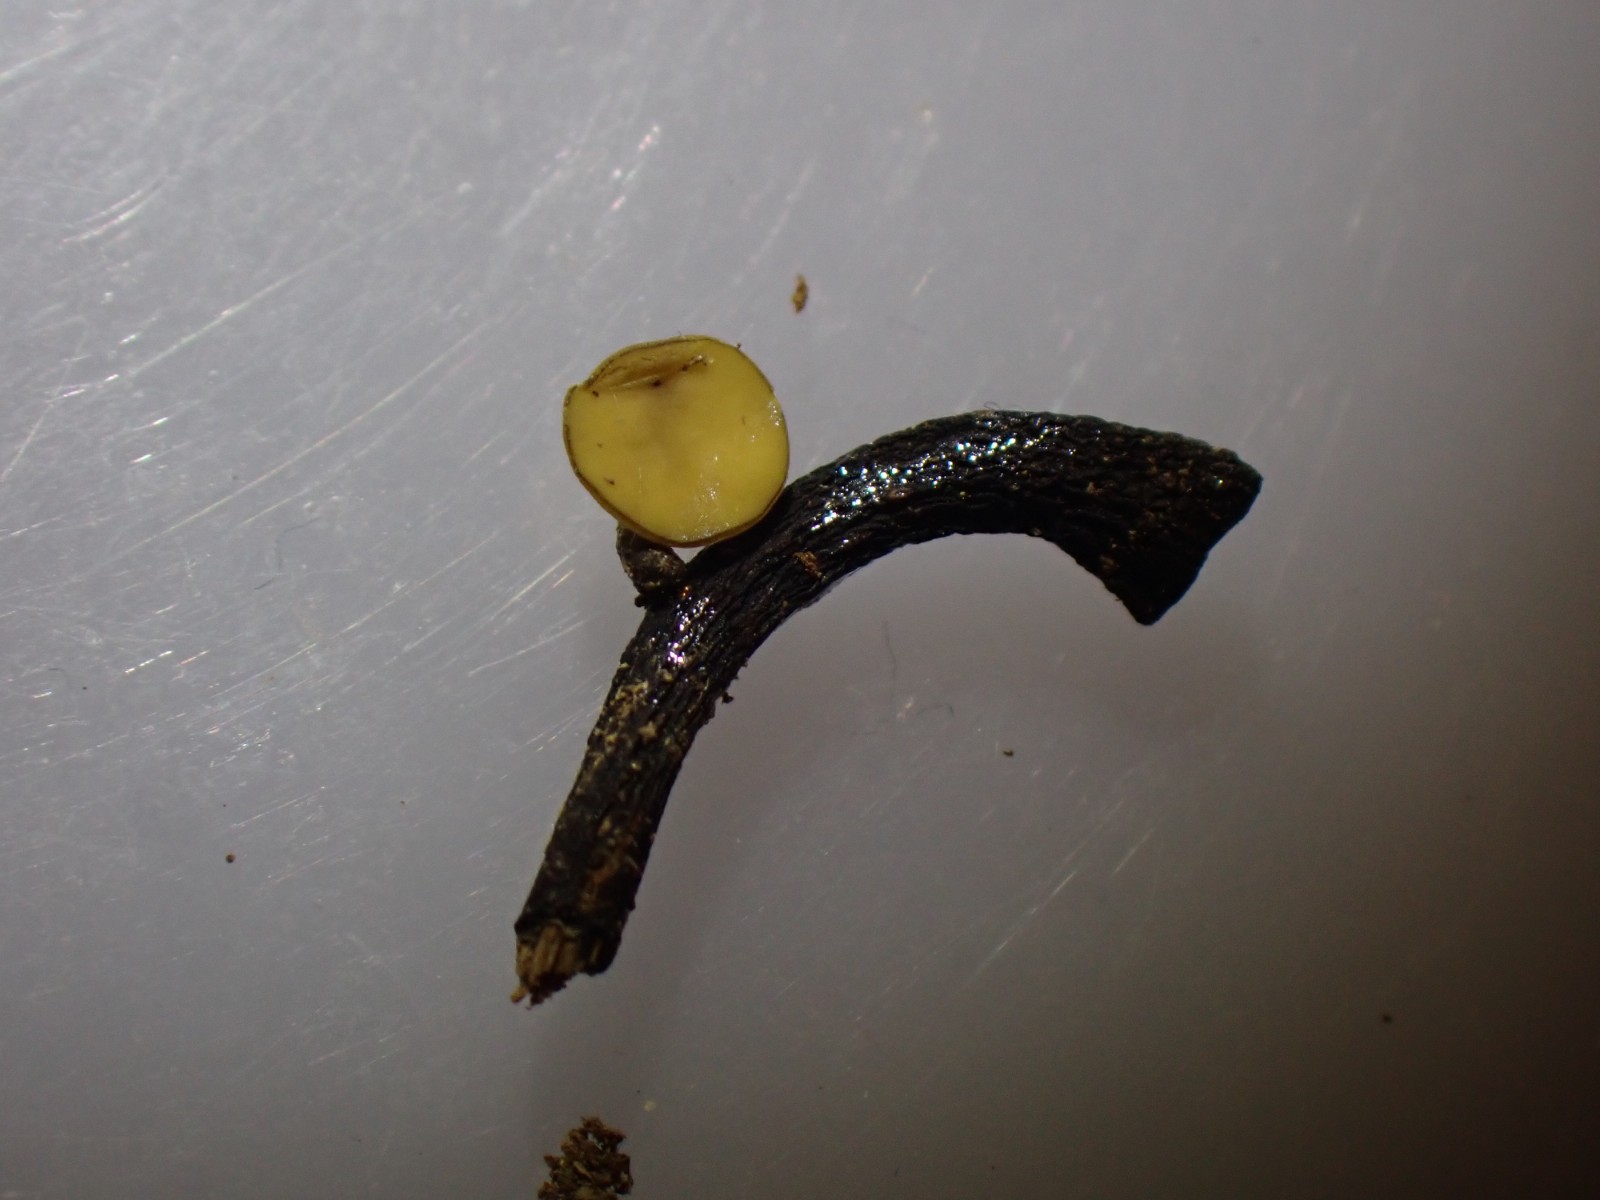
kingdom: Fungi
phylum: Ascomycota
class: Leotiomycetes
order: Helotiales
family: Rutstroemiaceae
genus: Lanzia
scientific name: Lanzia luteovirescens
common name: olivengul brunskive
